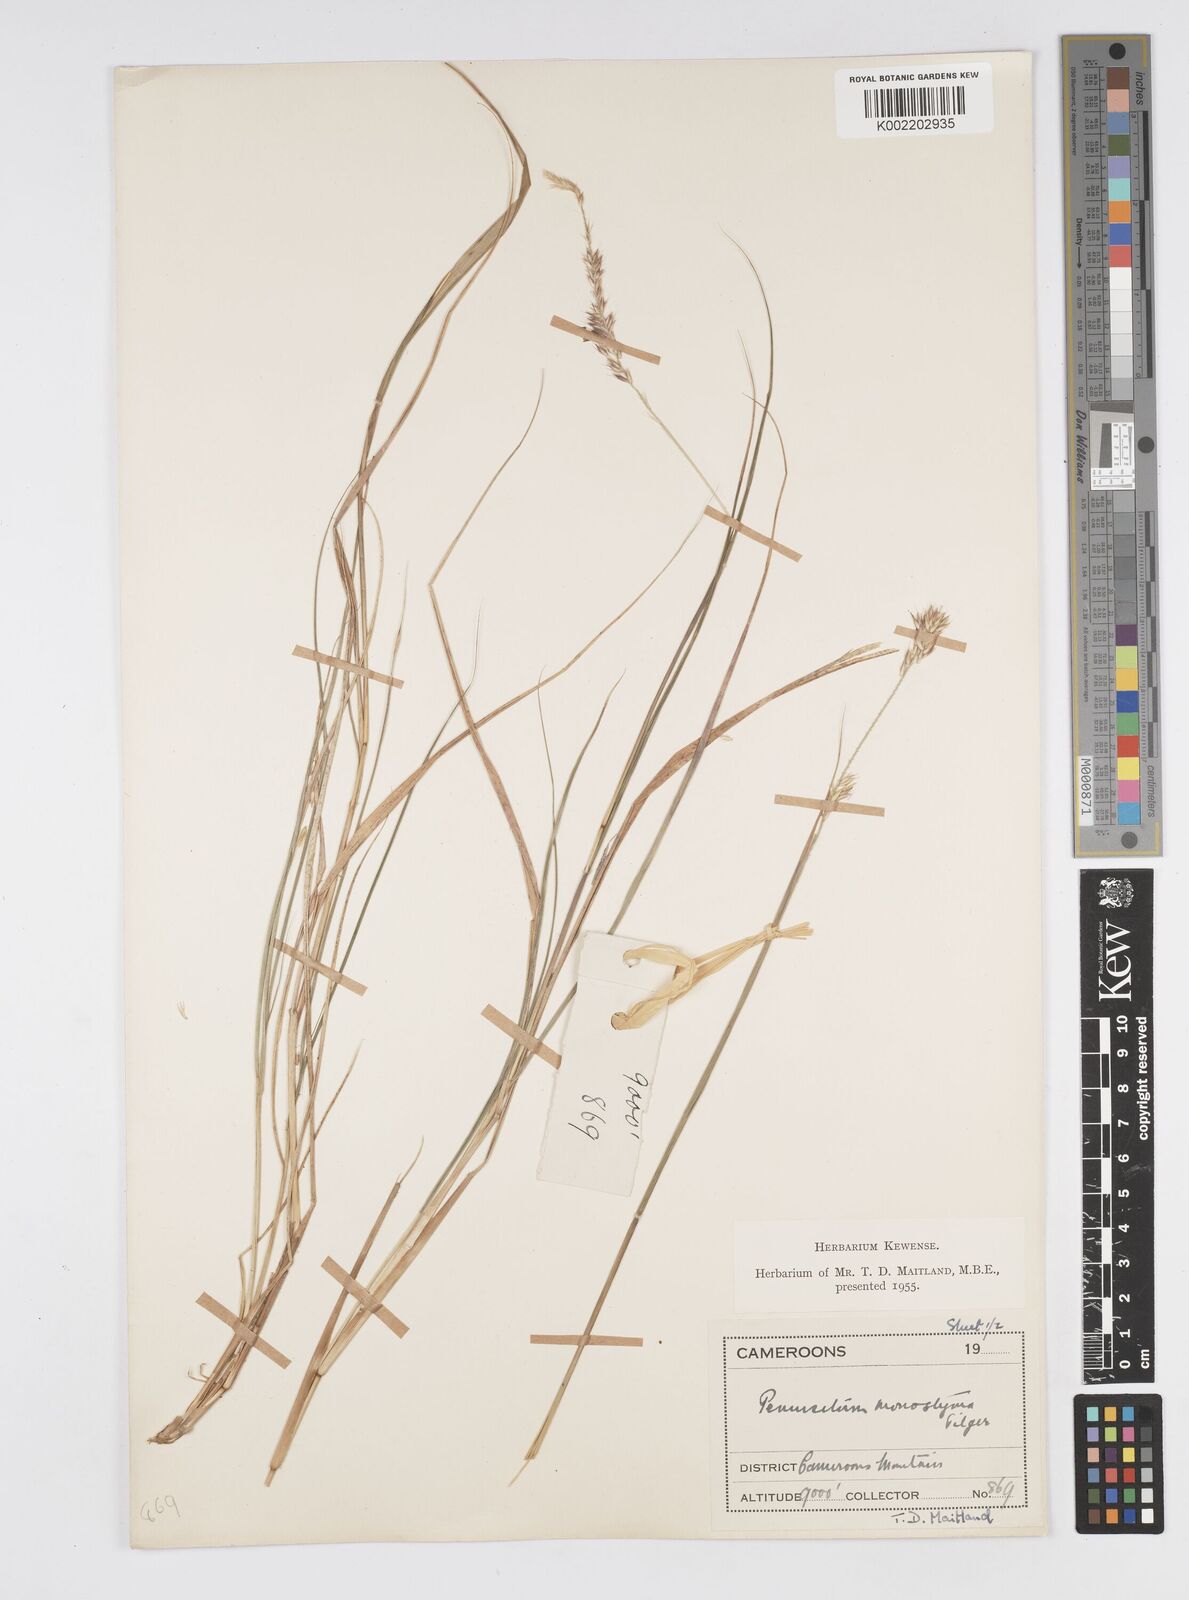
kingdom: Plantae
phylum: Tracheophyta
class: Liliopsida
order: Poales
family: Poaceae
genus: Cenchrus
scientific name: Cenchrus monostigma
